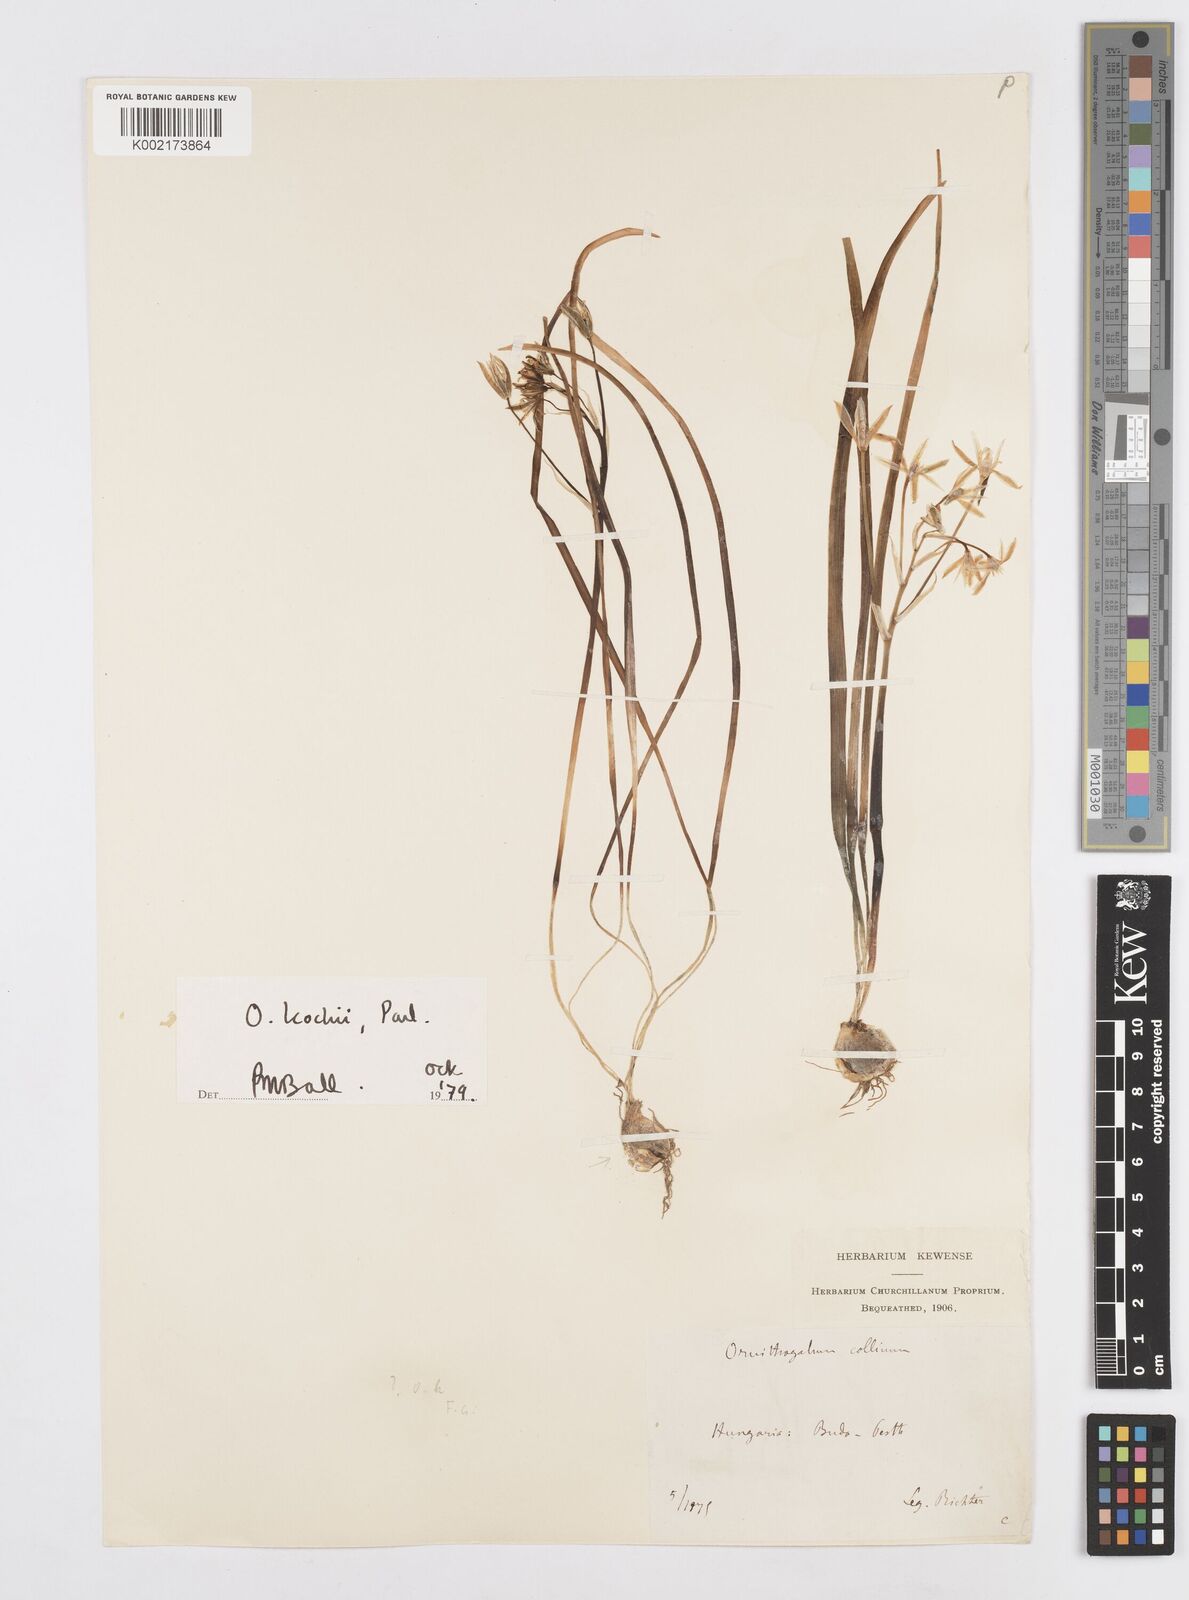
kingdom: Plantae
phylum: Tracheophyta
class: Liliopsida
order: Asparagales
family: Asparagaceae
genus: Ornithogalum
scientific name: Ornithogalum orthophyllum
